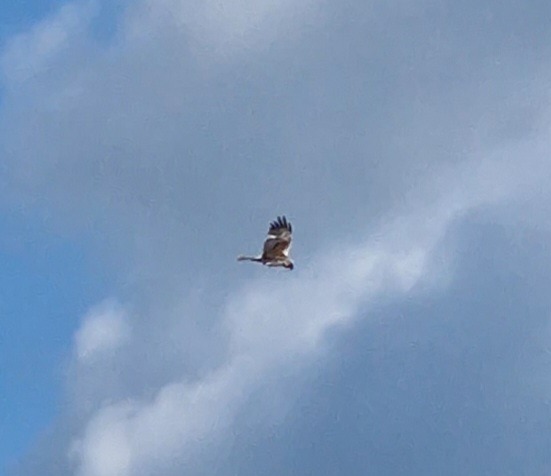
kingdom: Animalia
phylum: Chordata
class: Aves
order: Accipitriformes
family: Accipitridae
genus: Circus
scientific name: Circus aeruginosus
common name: Rørhøg
